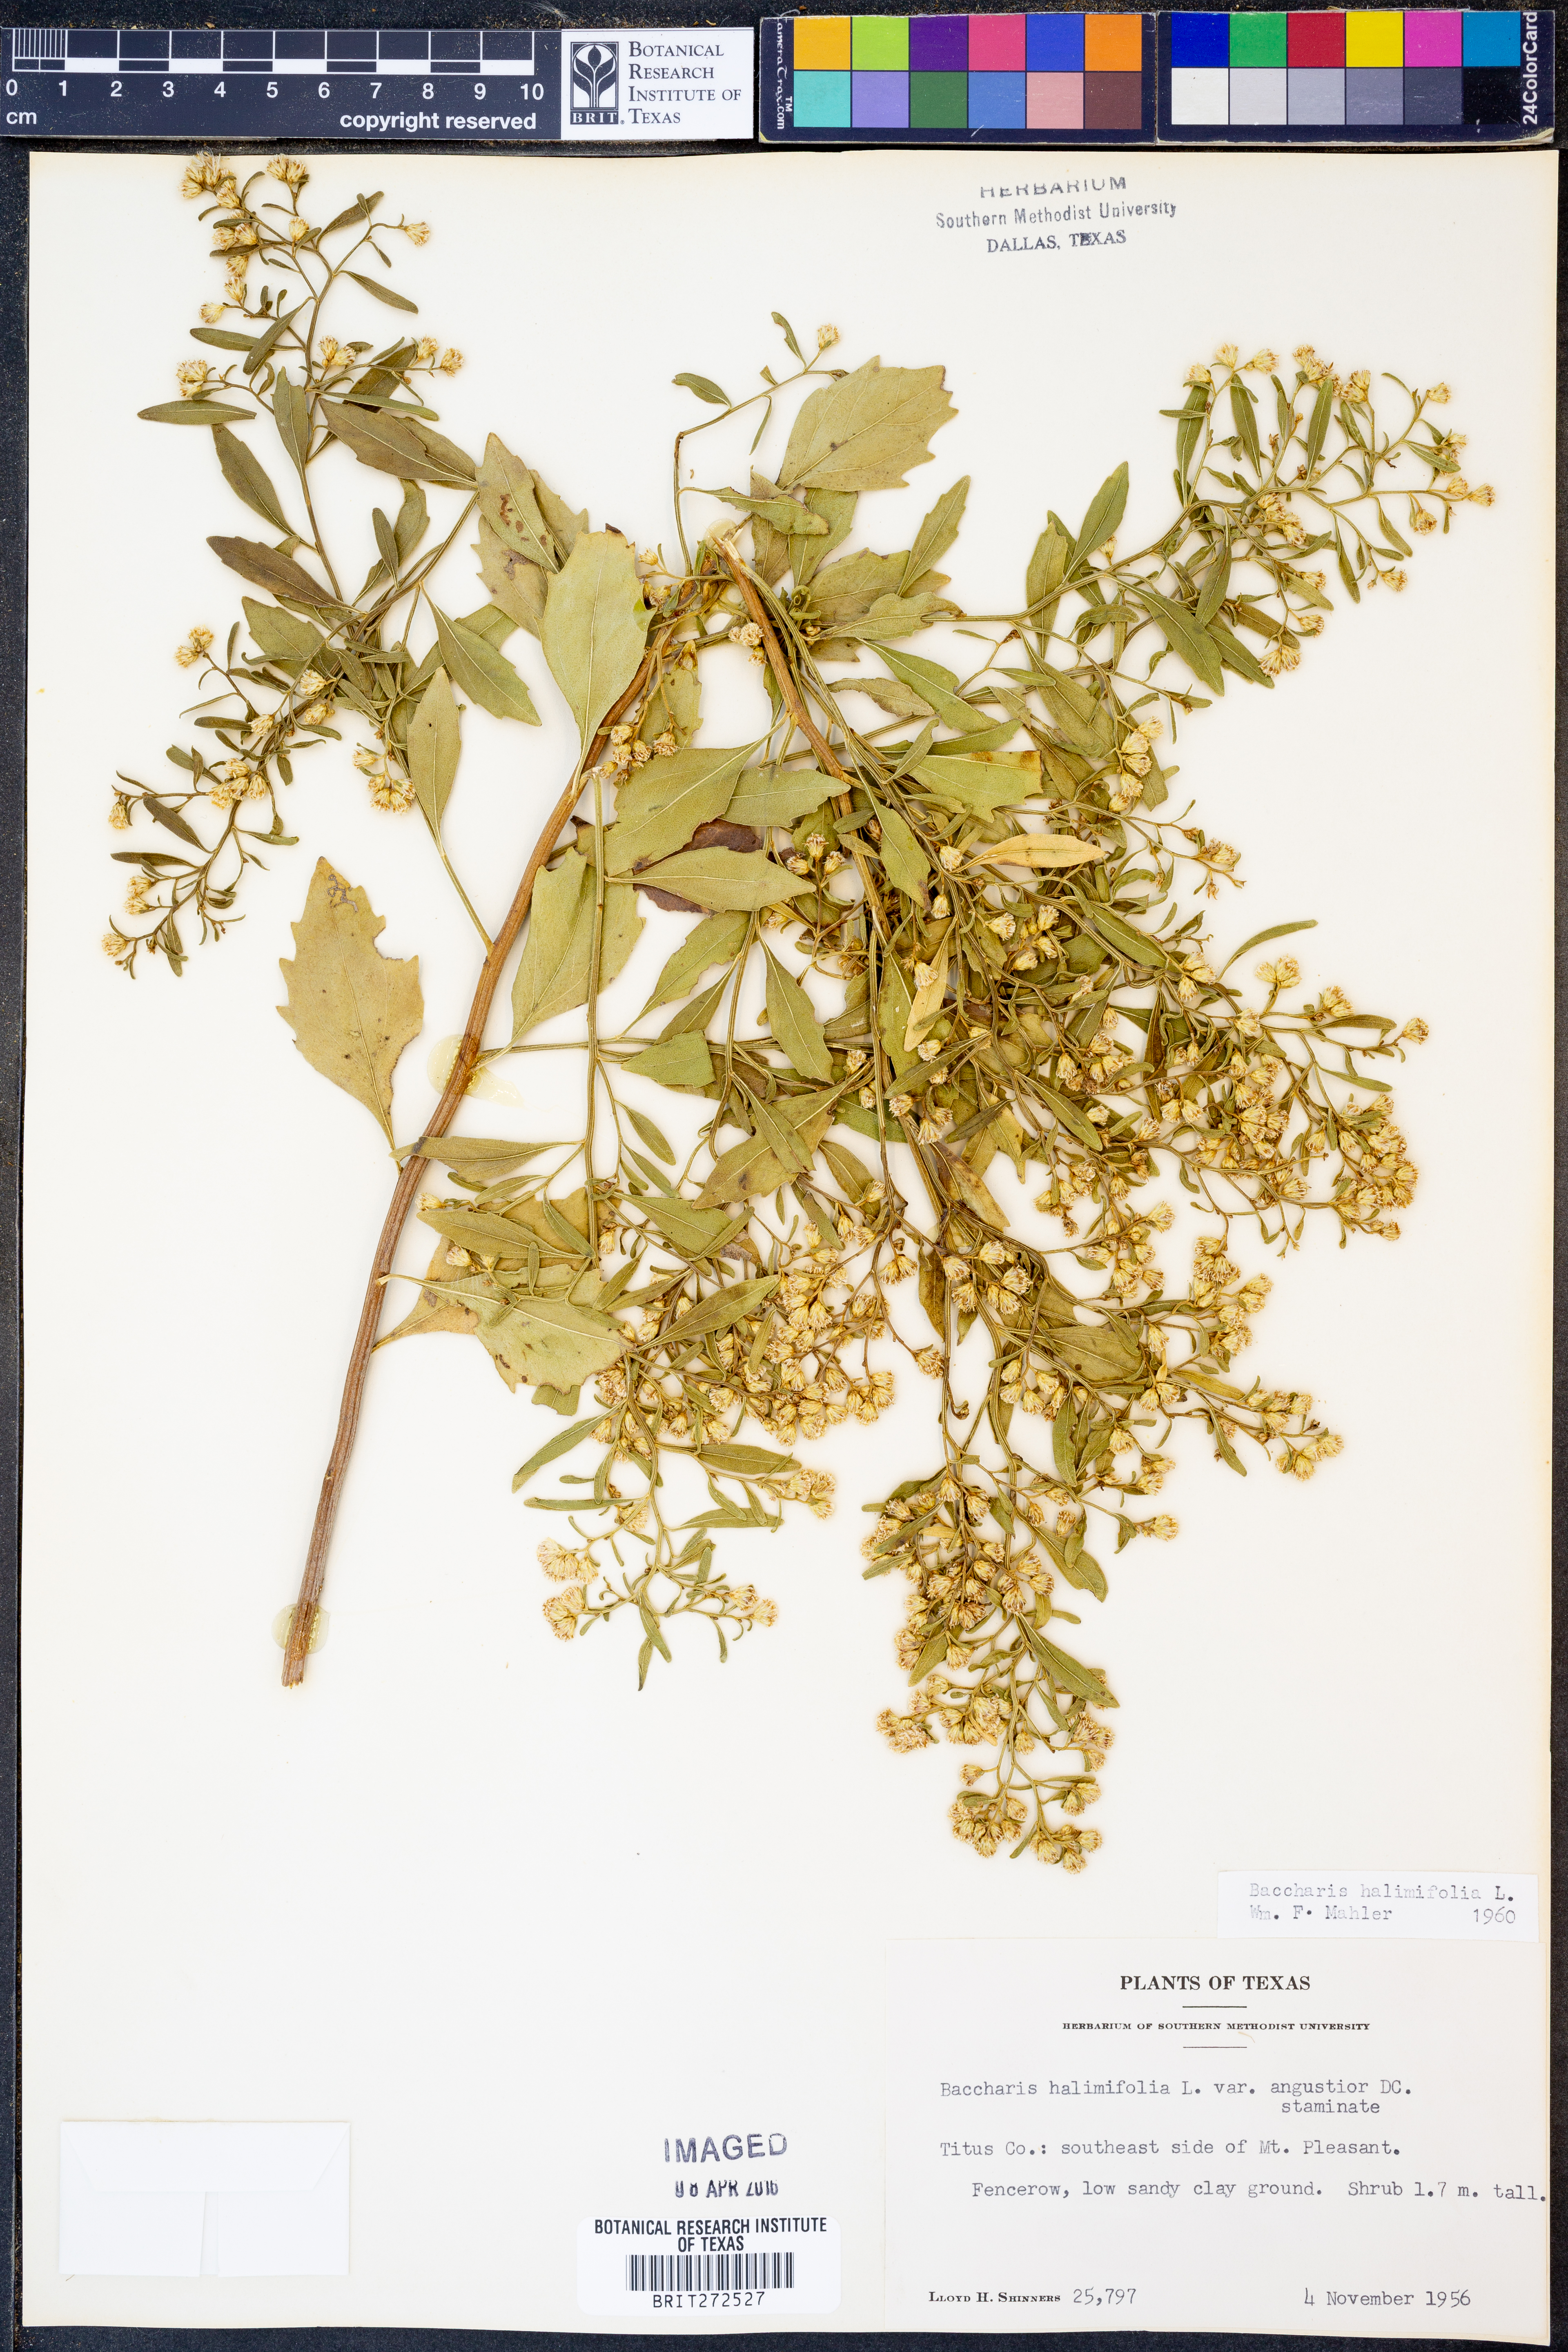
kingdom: Plantae
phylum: Tracheophyta
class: Magnoliopsida
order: Asterales
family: Asteraceae
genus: Nidorella
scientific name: Nidorella ivifolia
